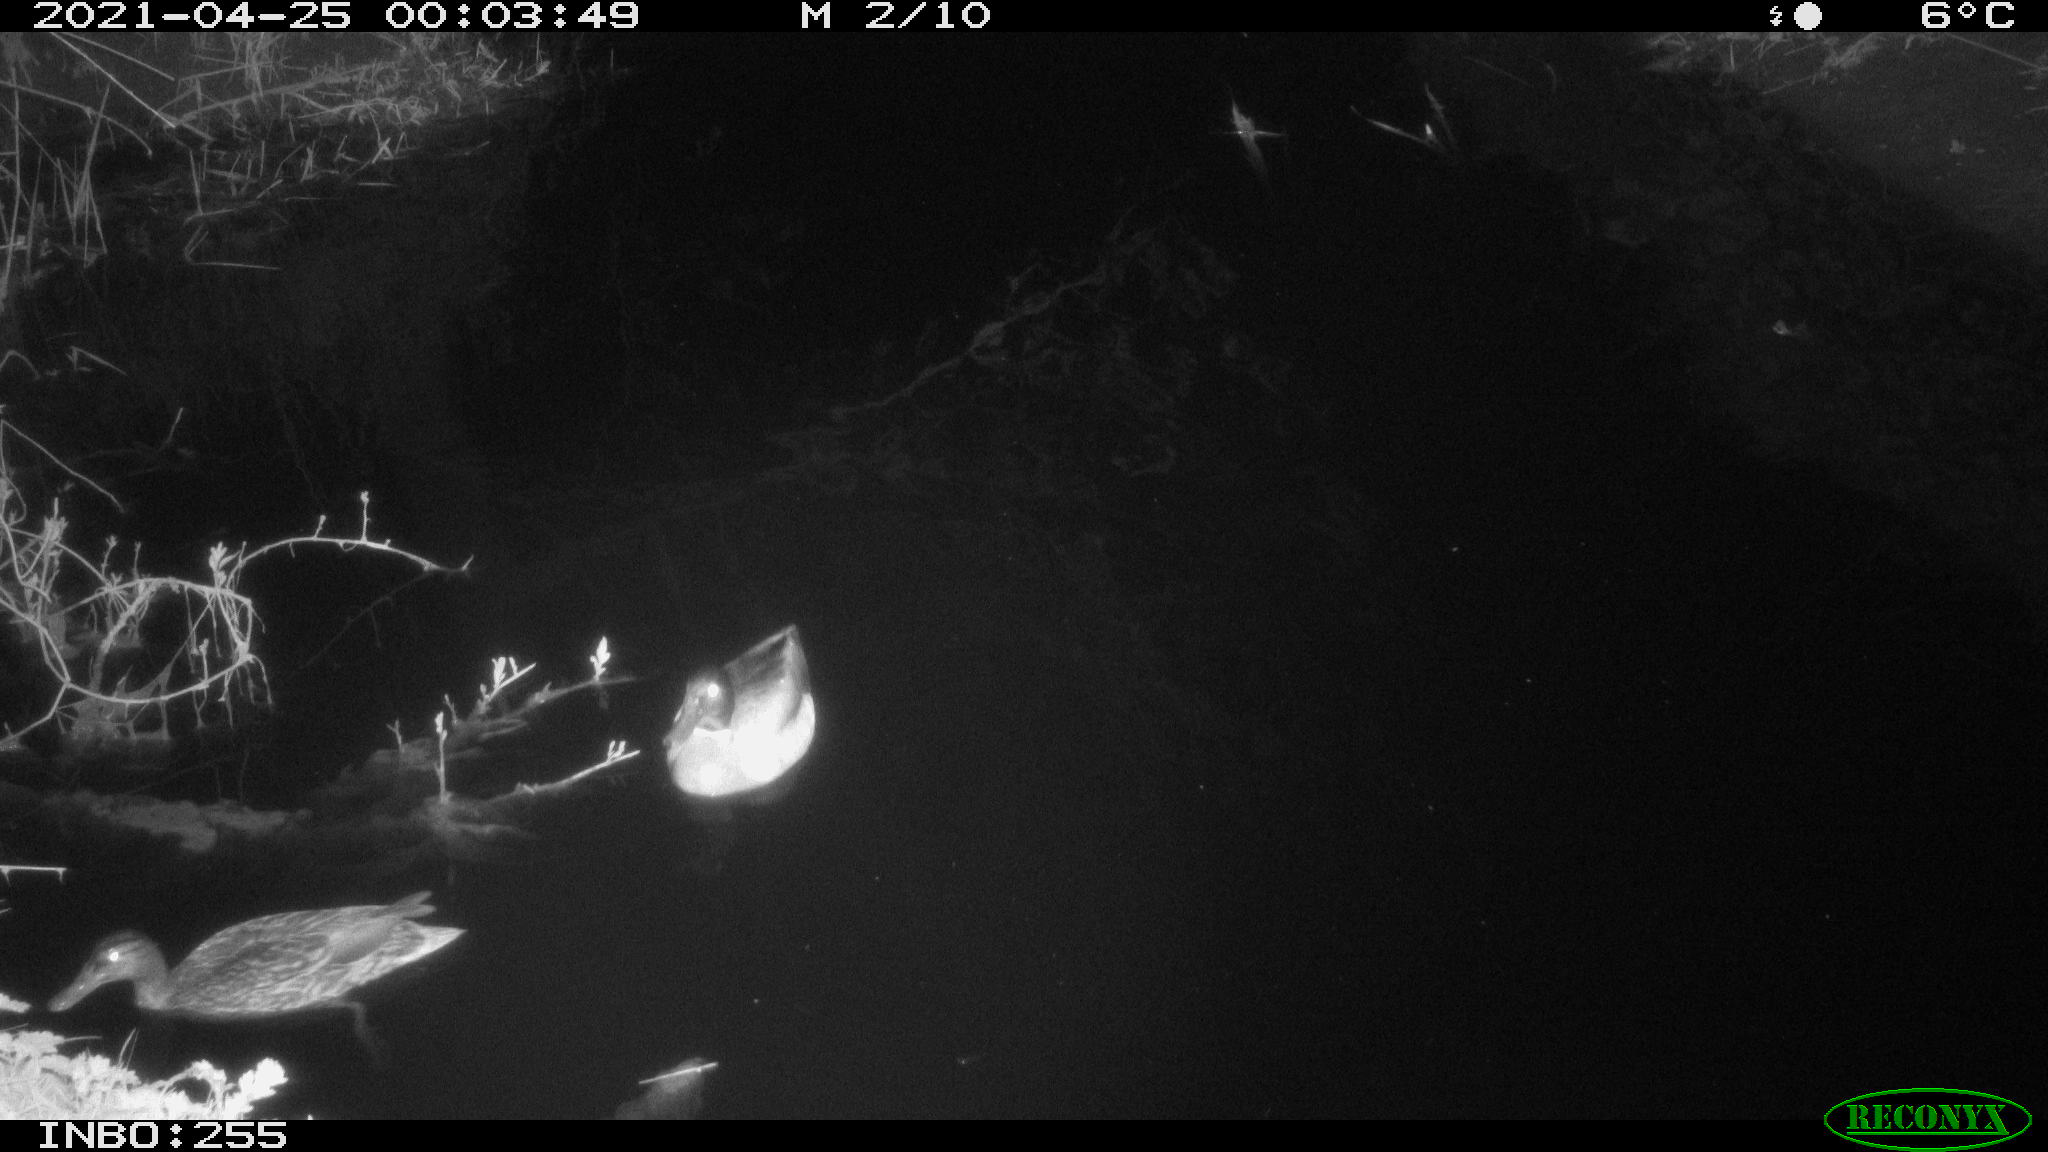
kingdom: Animalia
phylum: Chordata
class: Aves
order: Anseriformes
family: Anatidae
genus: Anas
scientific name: Anas platyrhynchos
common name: Mallard
